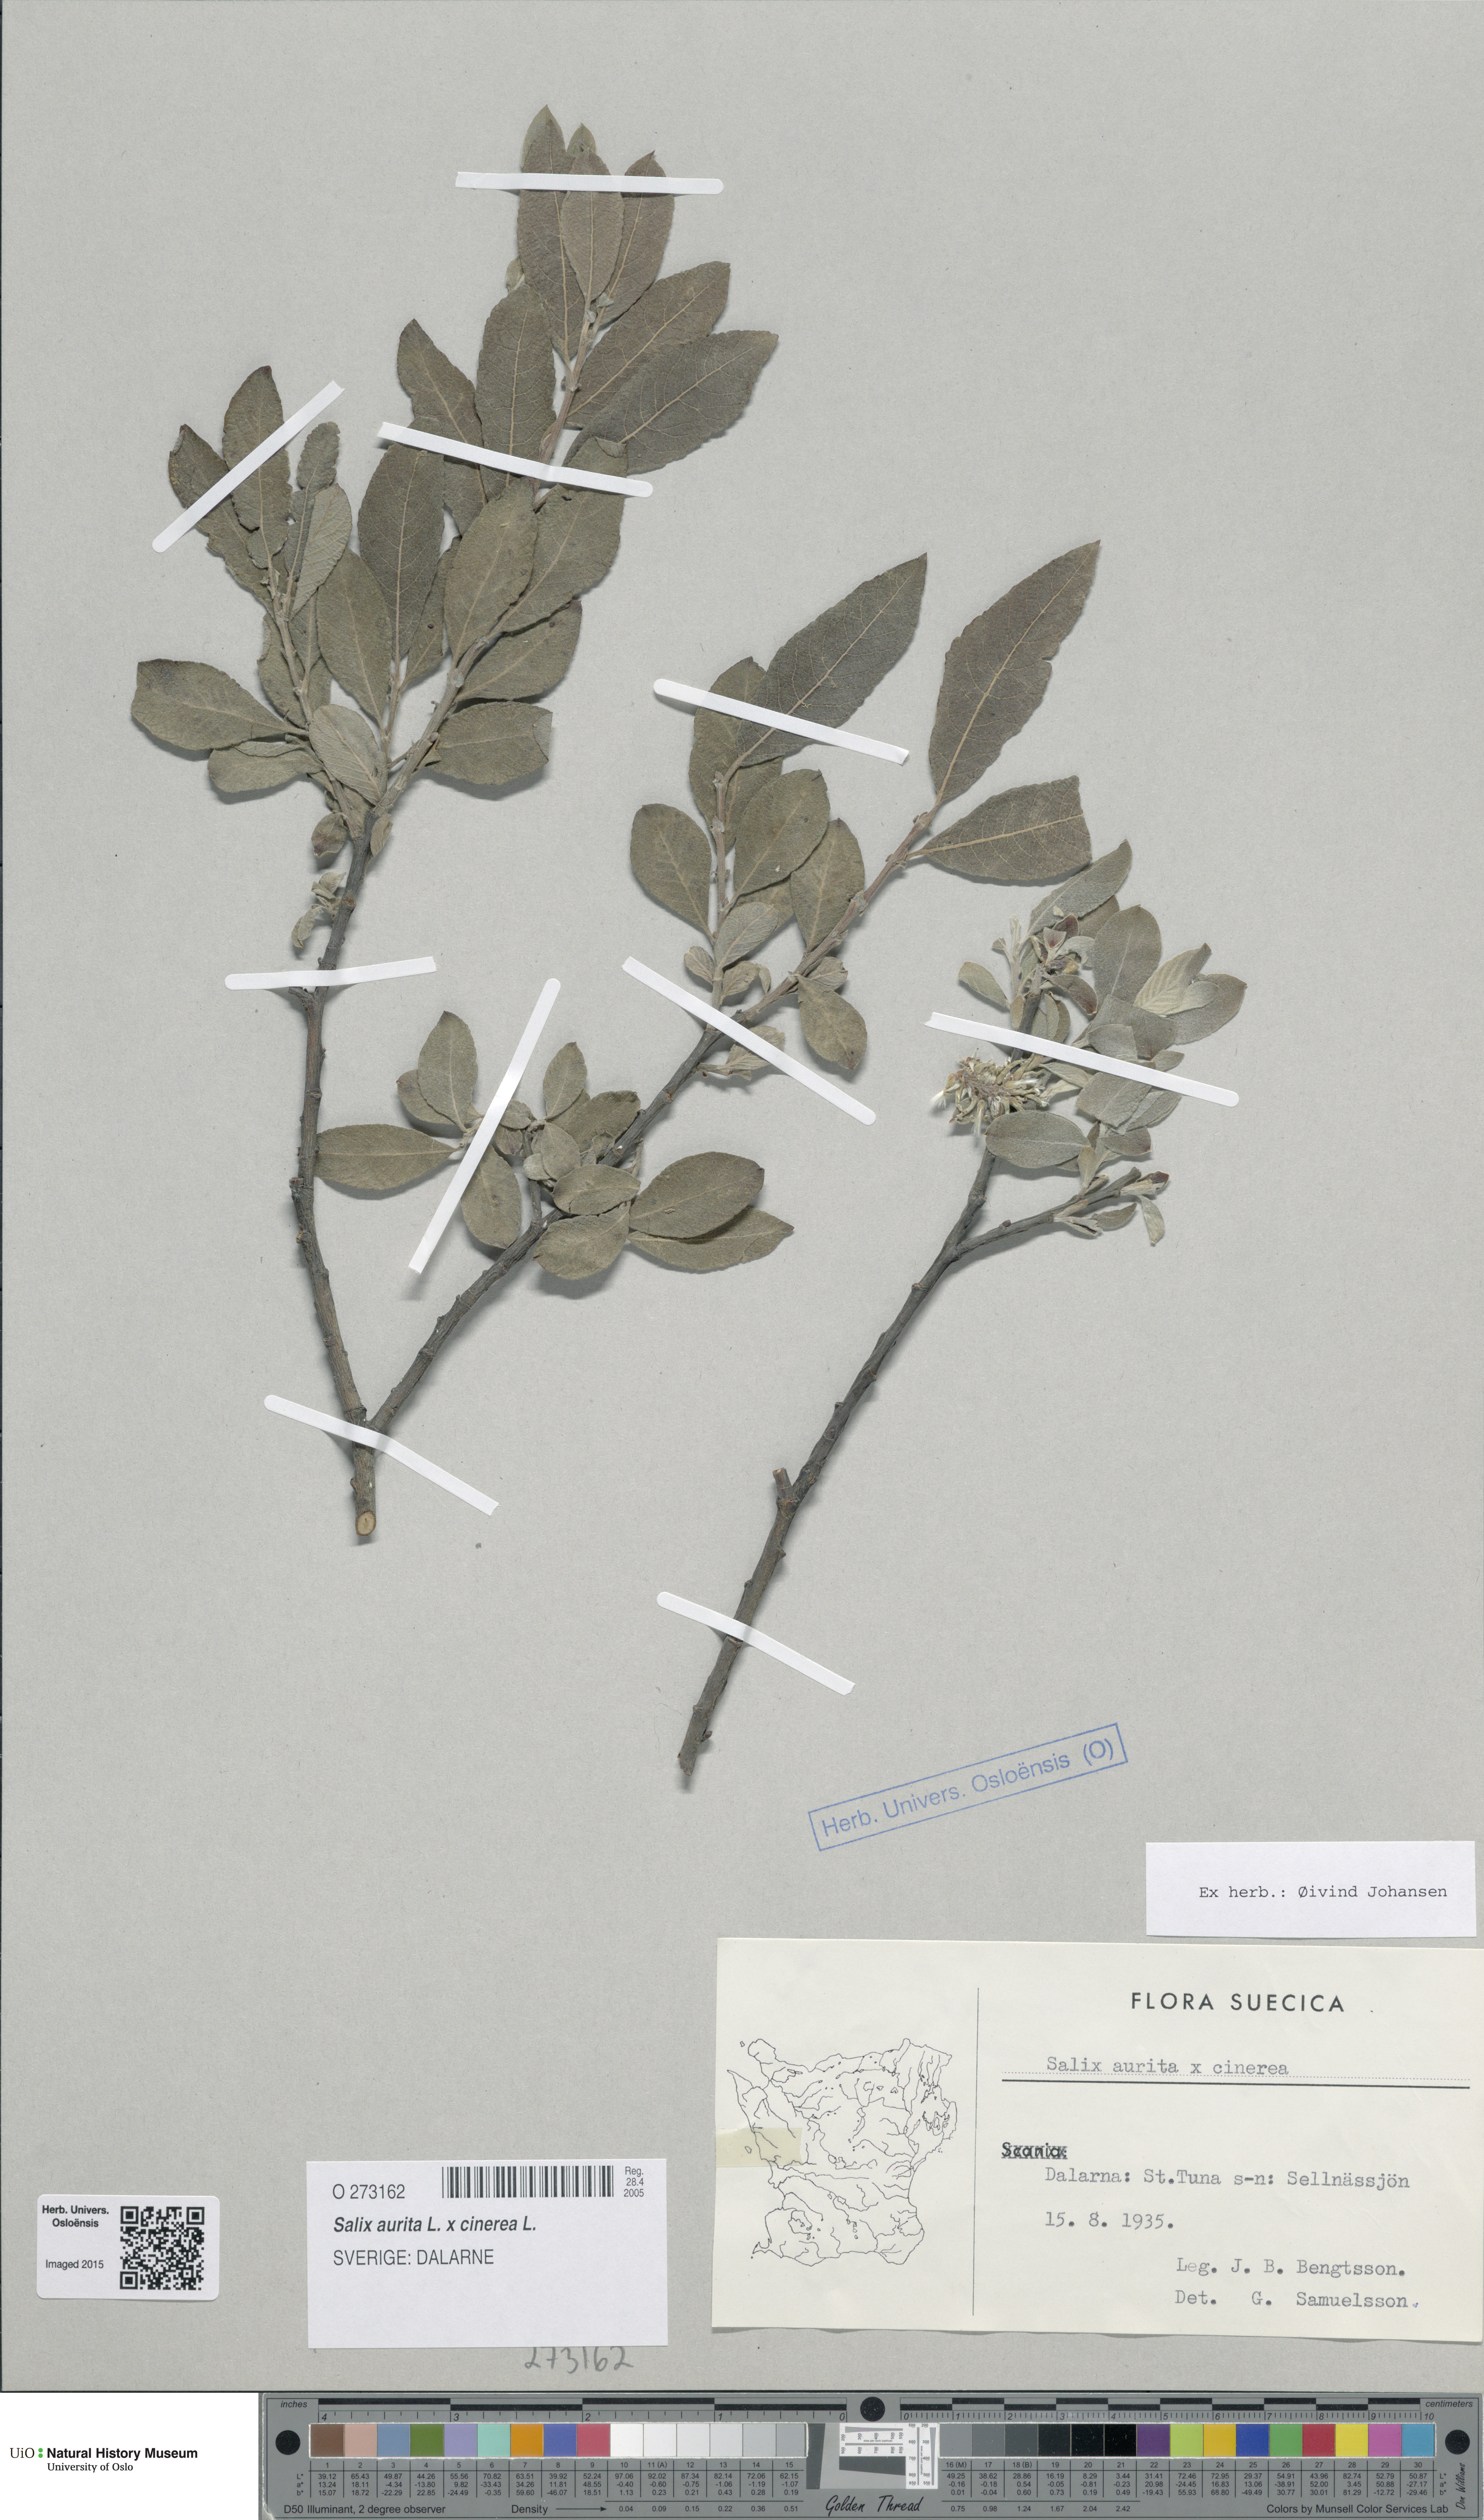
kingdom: Plantae
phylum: Tracheophyta
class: Magnoliopsida
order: Malpighiales
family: Salicaceae
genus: Salix
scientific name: Salix
